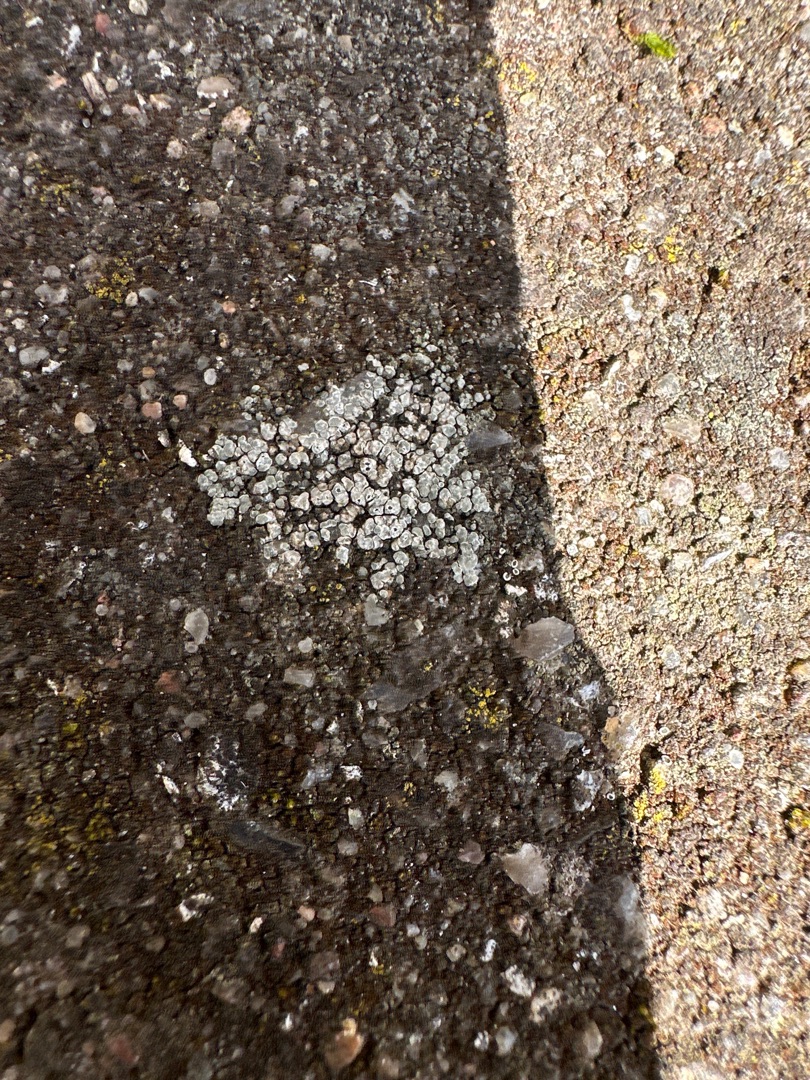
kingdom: Fungi
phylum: Ascomycota
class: Lecanoromycetes
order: Pertusariales
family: Megasporaceae
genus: Circinaria
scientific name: Circinaria contorta
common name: Indviklet hulskivelav
